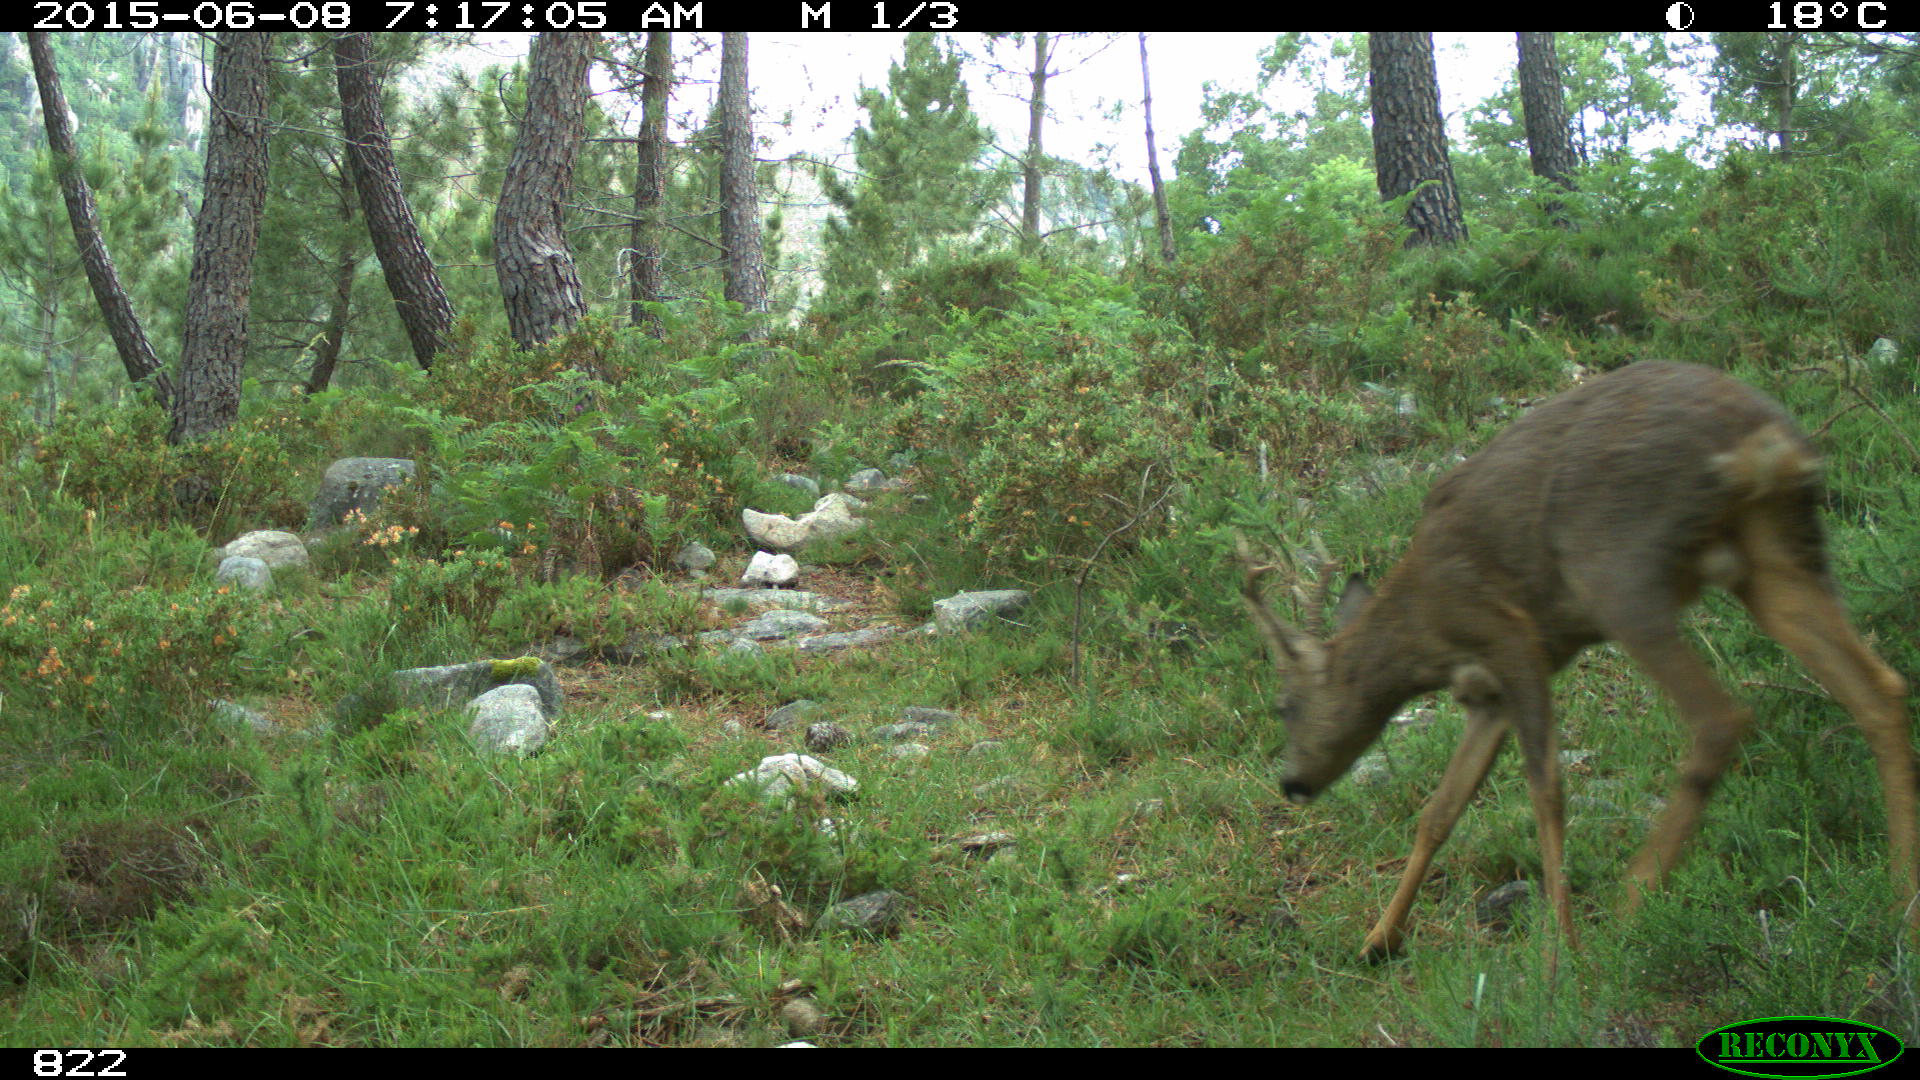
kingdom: Animalia
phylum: Chordata
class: Mammalia
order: Artiodactyla
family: Cervidae
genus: Capreolus
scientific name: Capreolus capreolus
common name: Western roe deer
